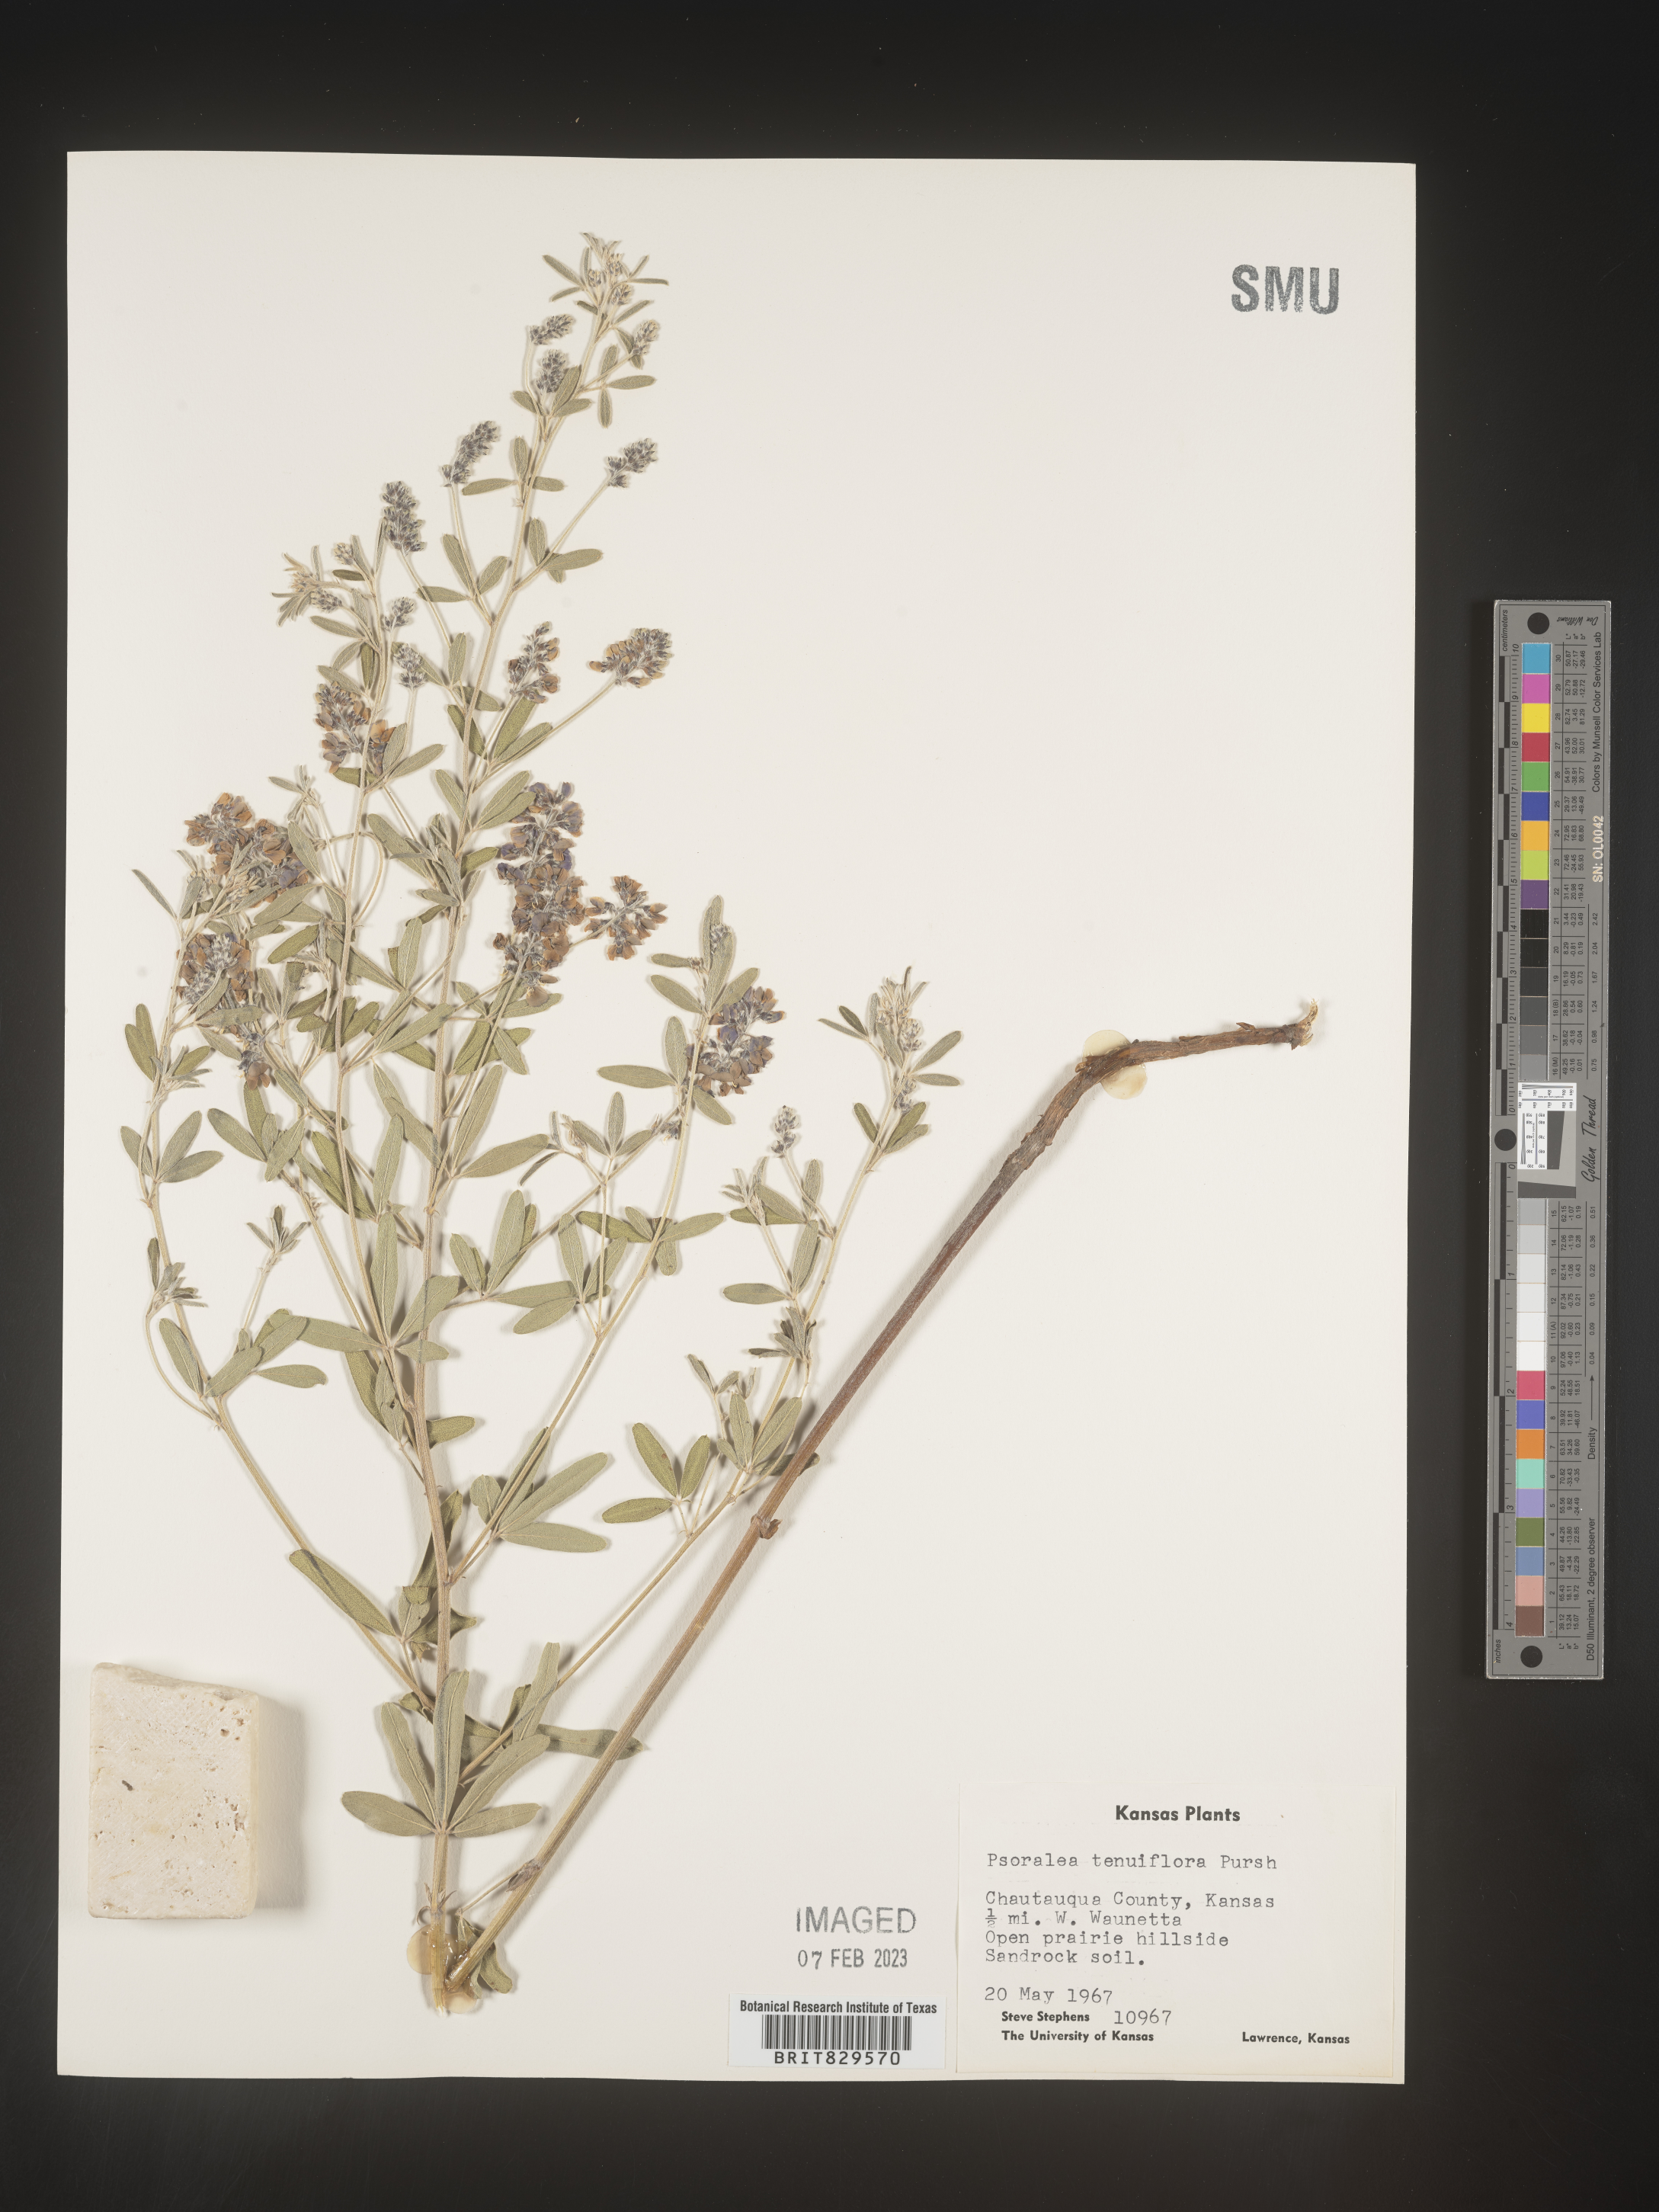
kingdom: Plantae
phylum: Tracheophyta
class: Magnoliopsida
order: Fabales
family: Fabaceae
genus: Pediomelum
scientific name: Pediomelum tenuiflorum
